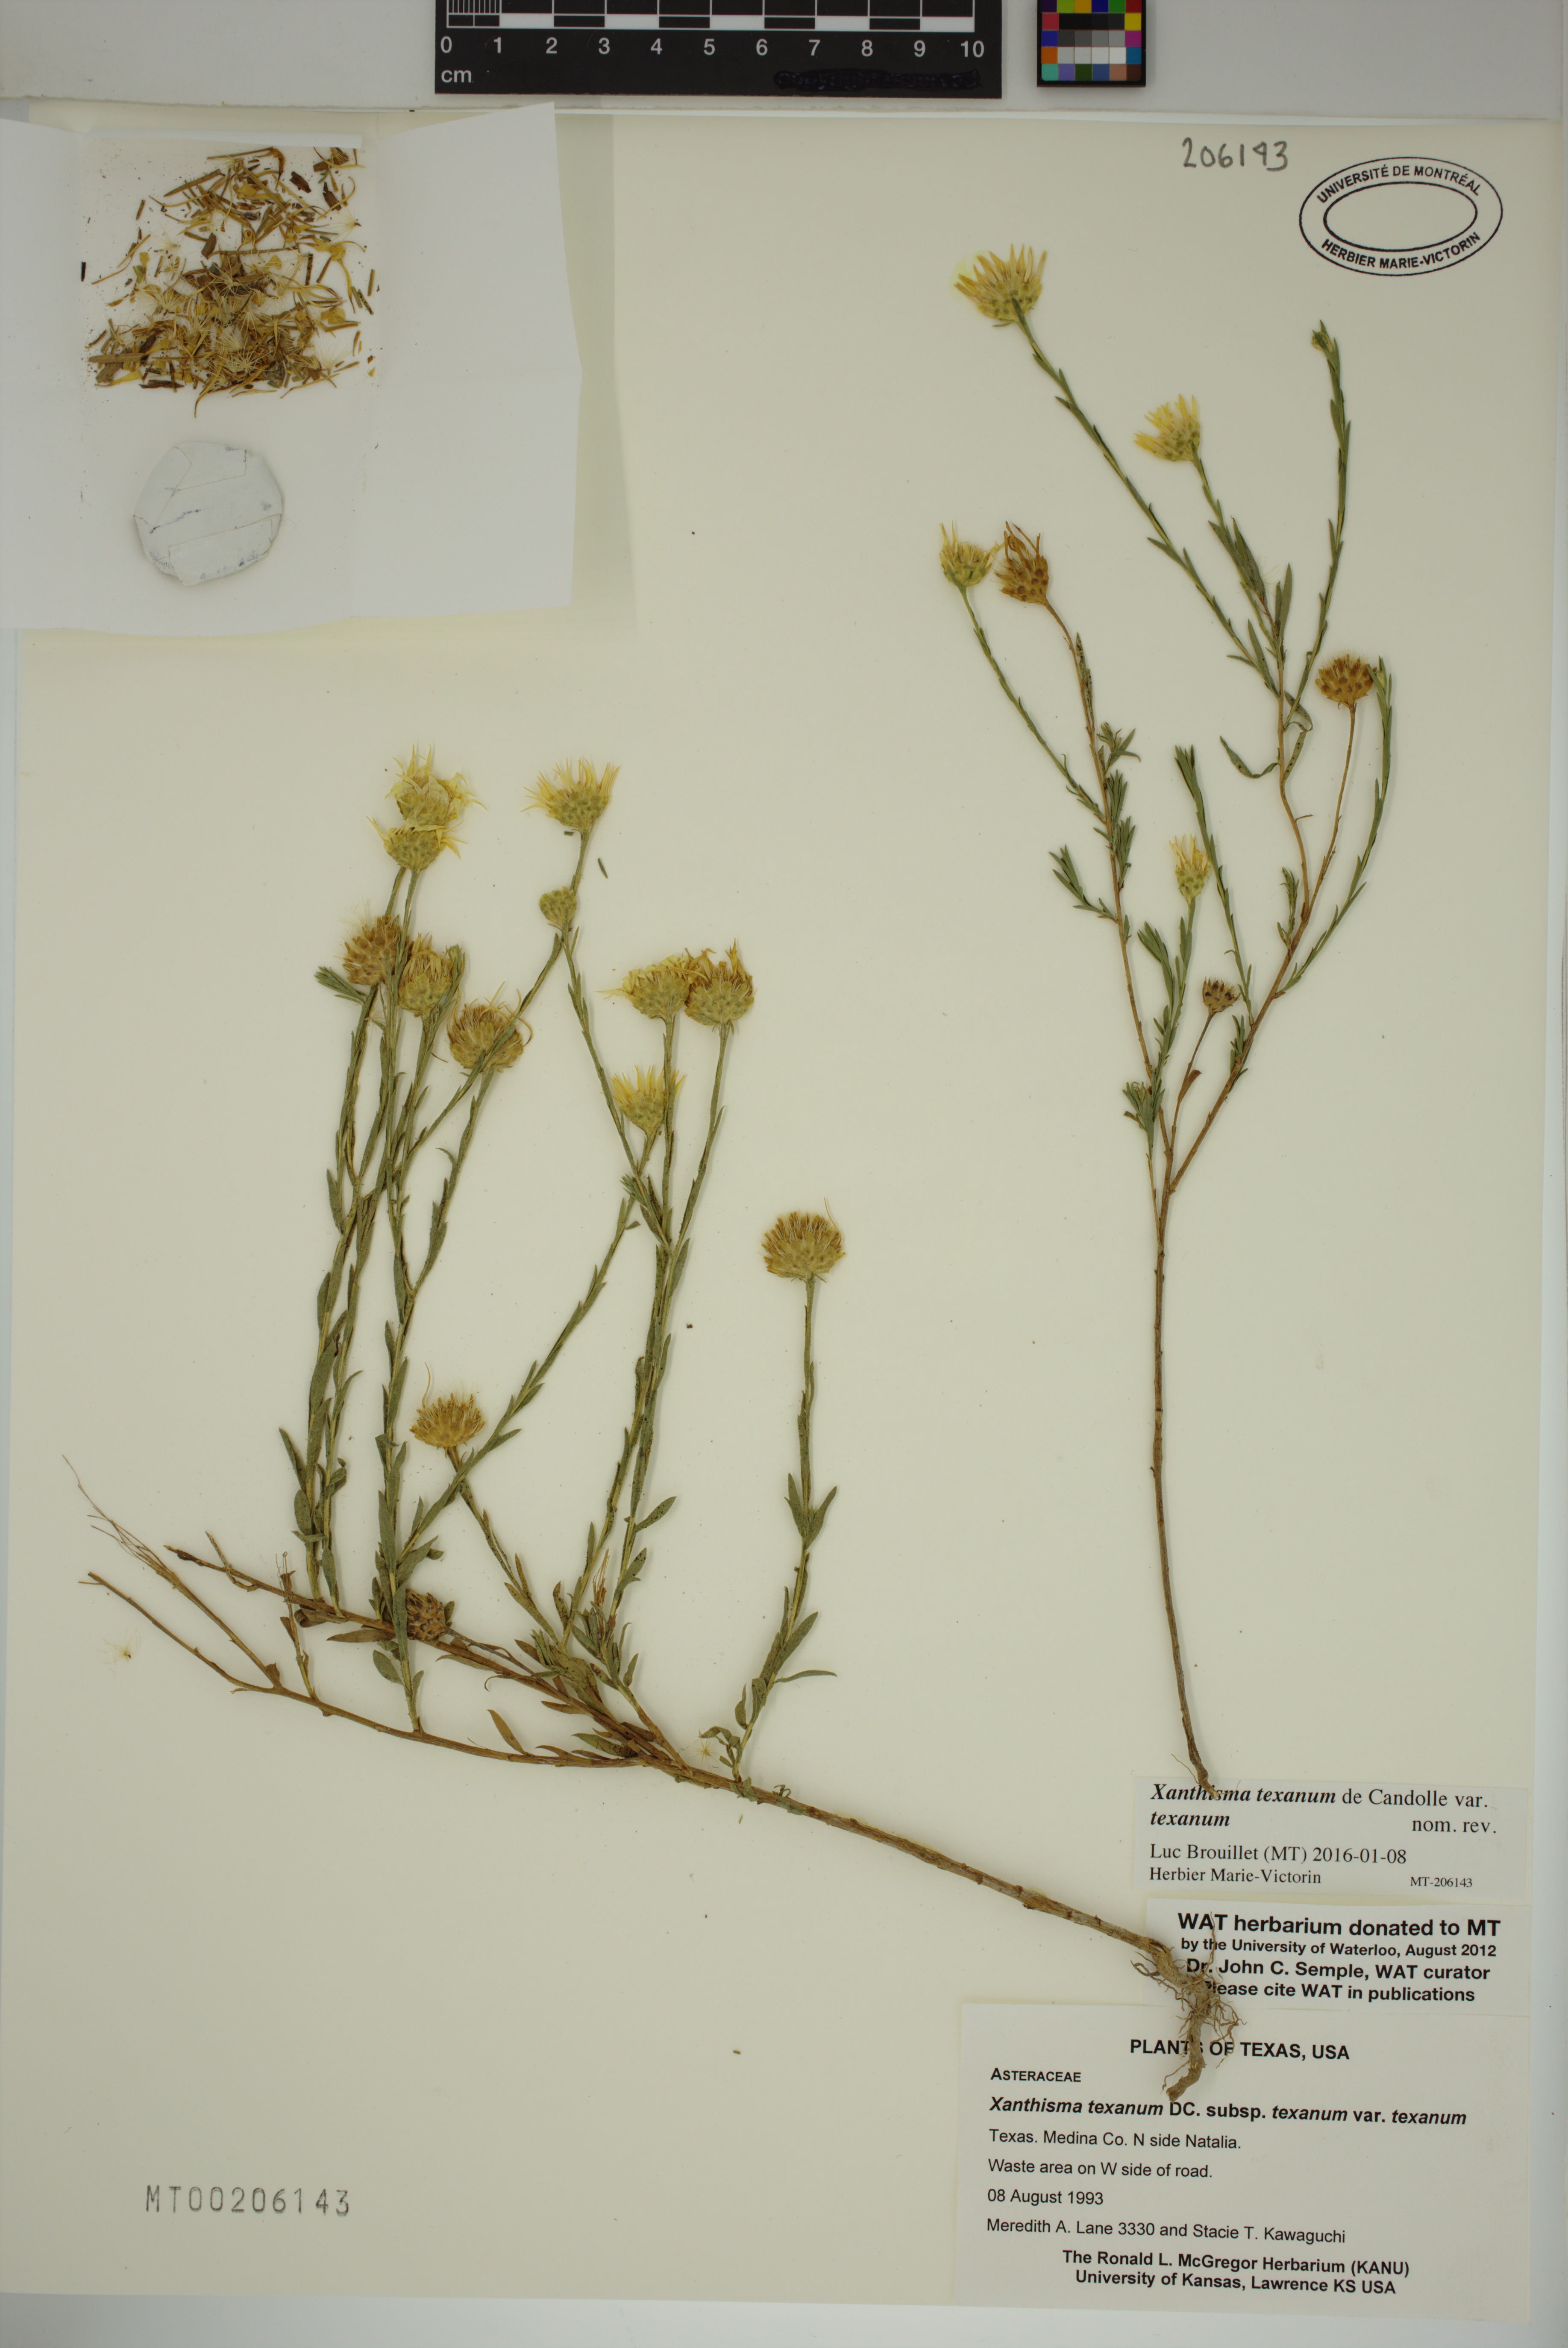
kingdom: Plantae
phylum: Tracheophyta
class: Magnoliopsida
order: Asterales
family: Asteraceae
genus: Xanthisma
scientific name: Xanthisma texanum
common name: Texas sleepy daisy
